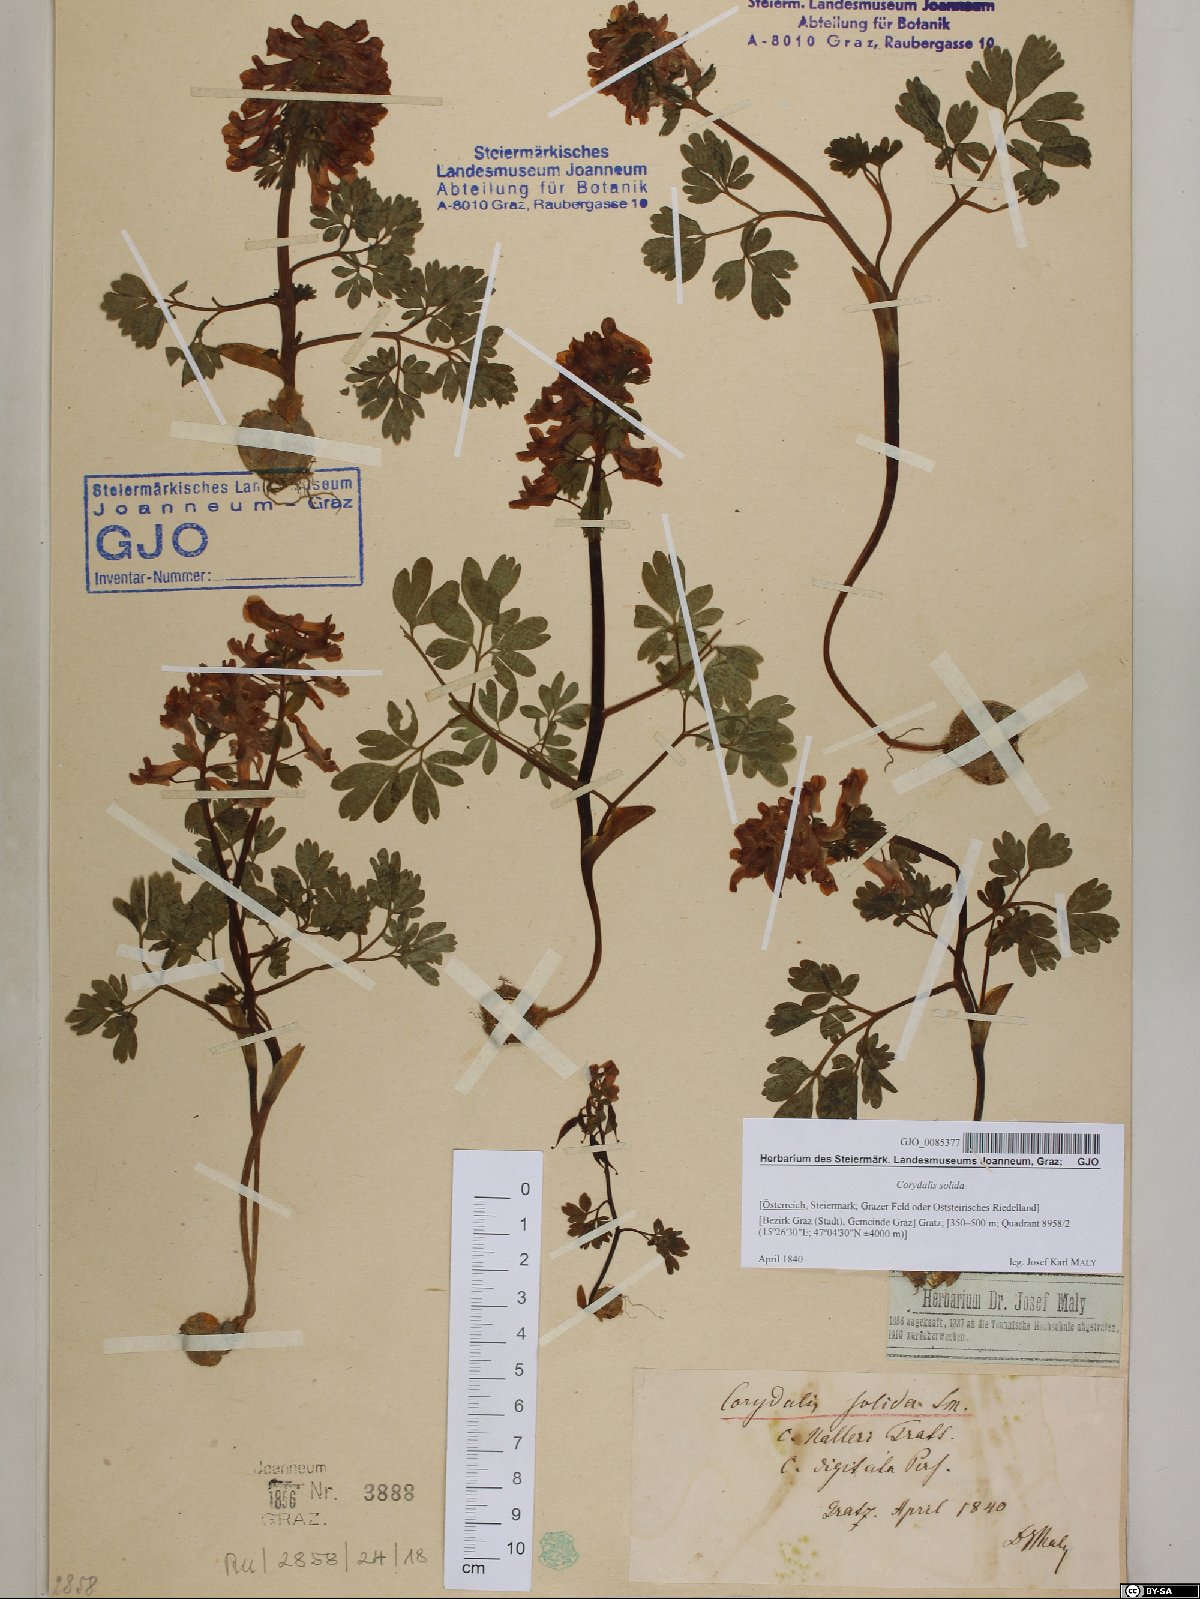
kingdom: Plantae
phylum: Tracheophyta
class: Magnoliopsida
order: Ranunculales
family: Papaveraceae
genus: Corydalis
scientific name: Corydalis solida
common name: Bird-in-a-bush
